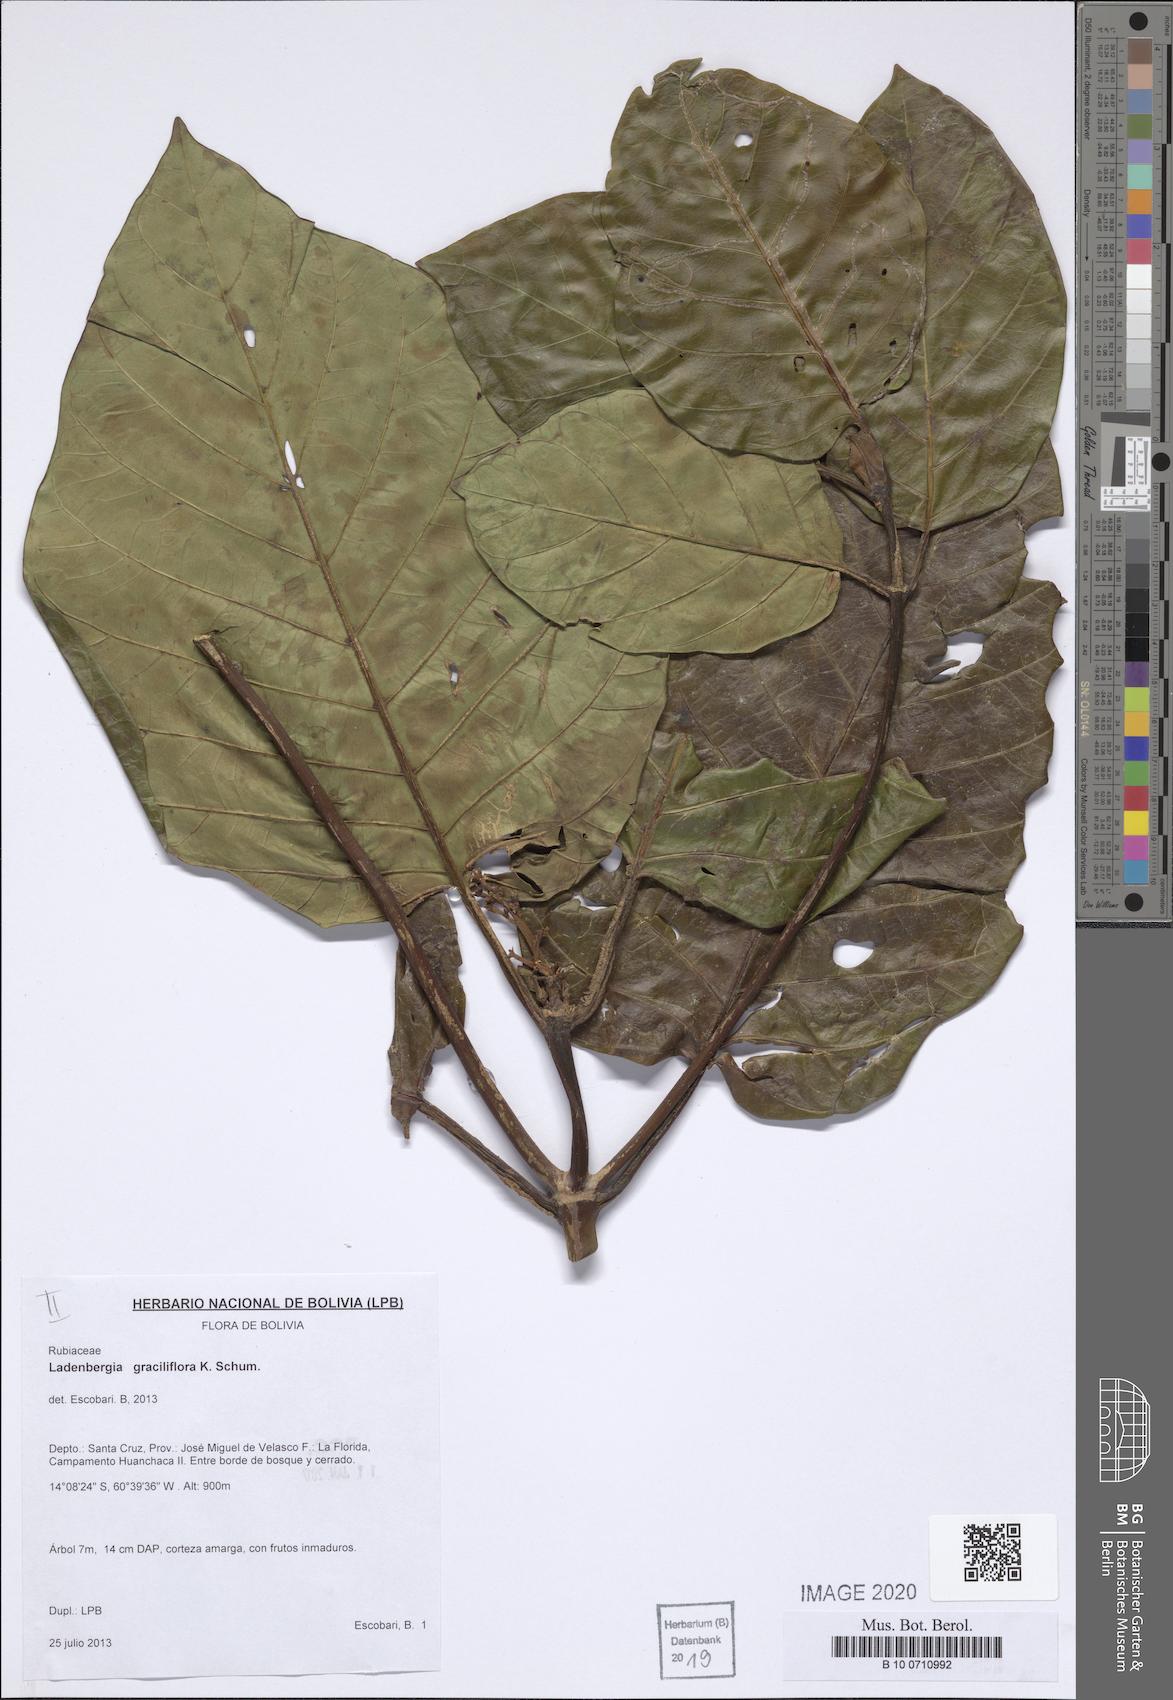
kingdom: Plantae
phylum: Tracheophyta
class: Magnoliopsida
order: Gentianales
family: Rubiaceae
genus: Ladenbergia
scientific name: Ladenbergia graciliflora
